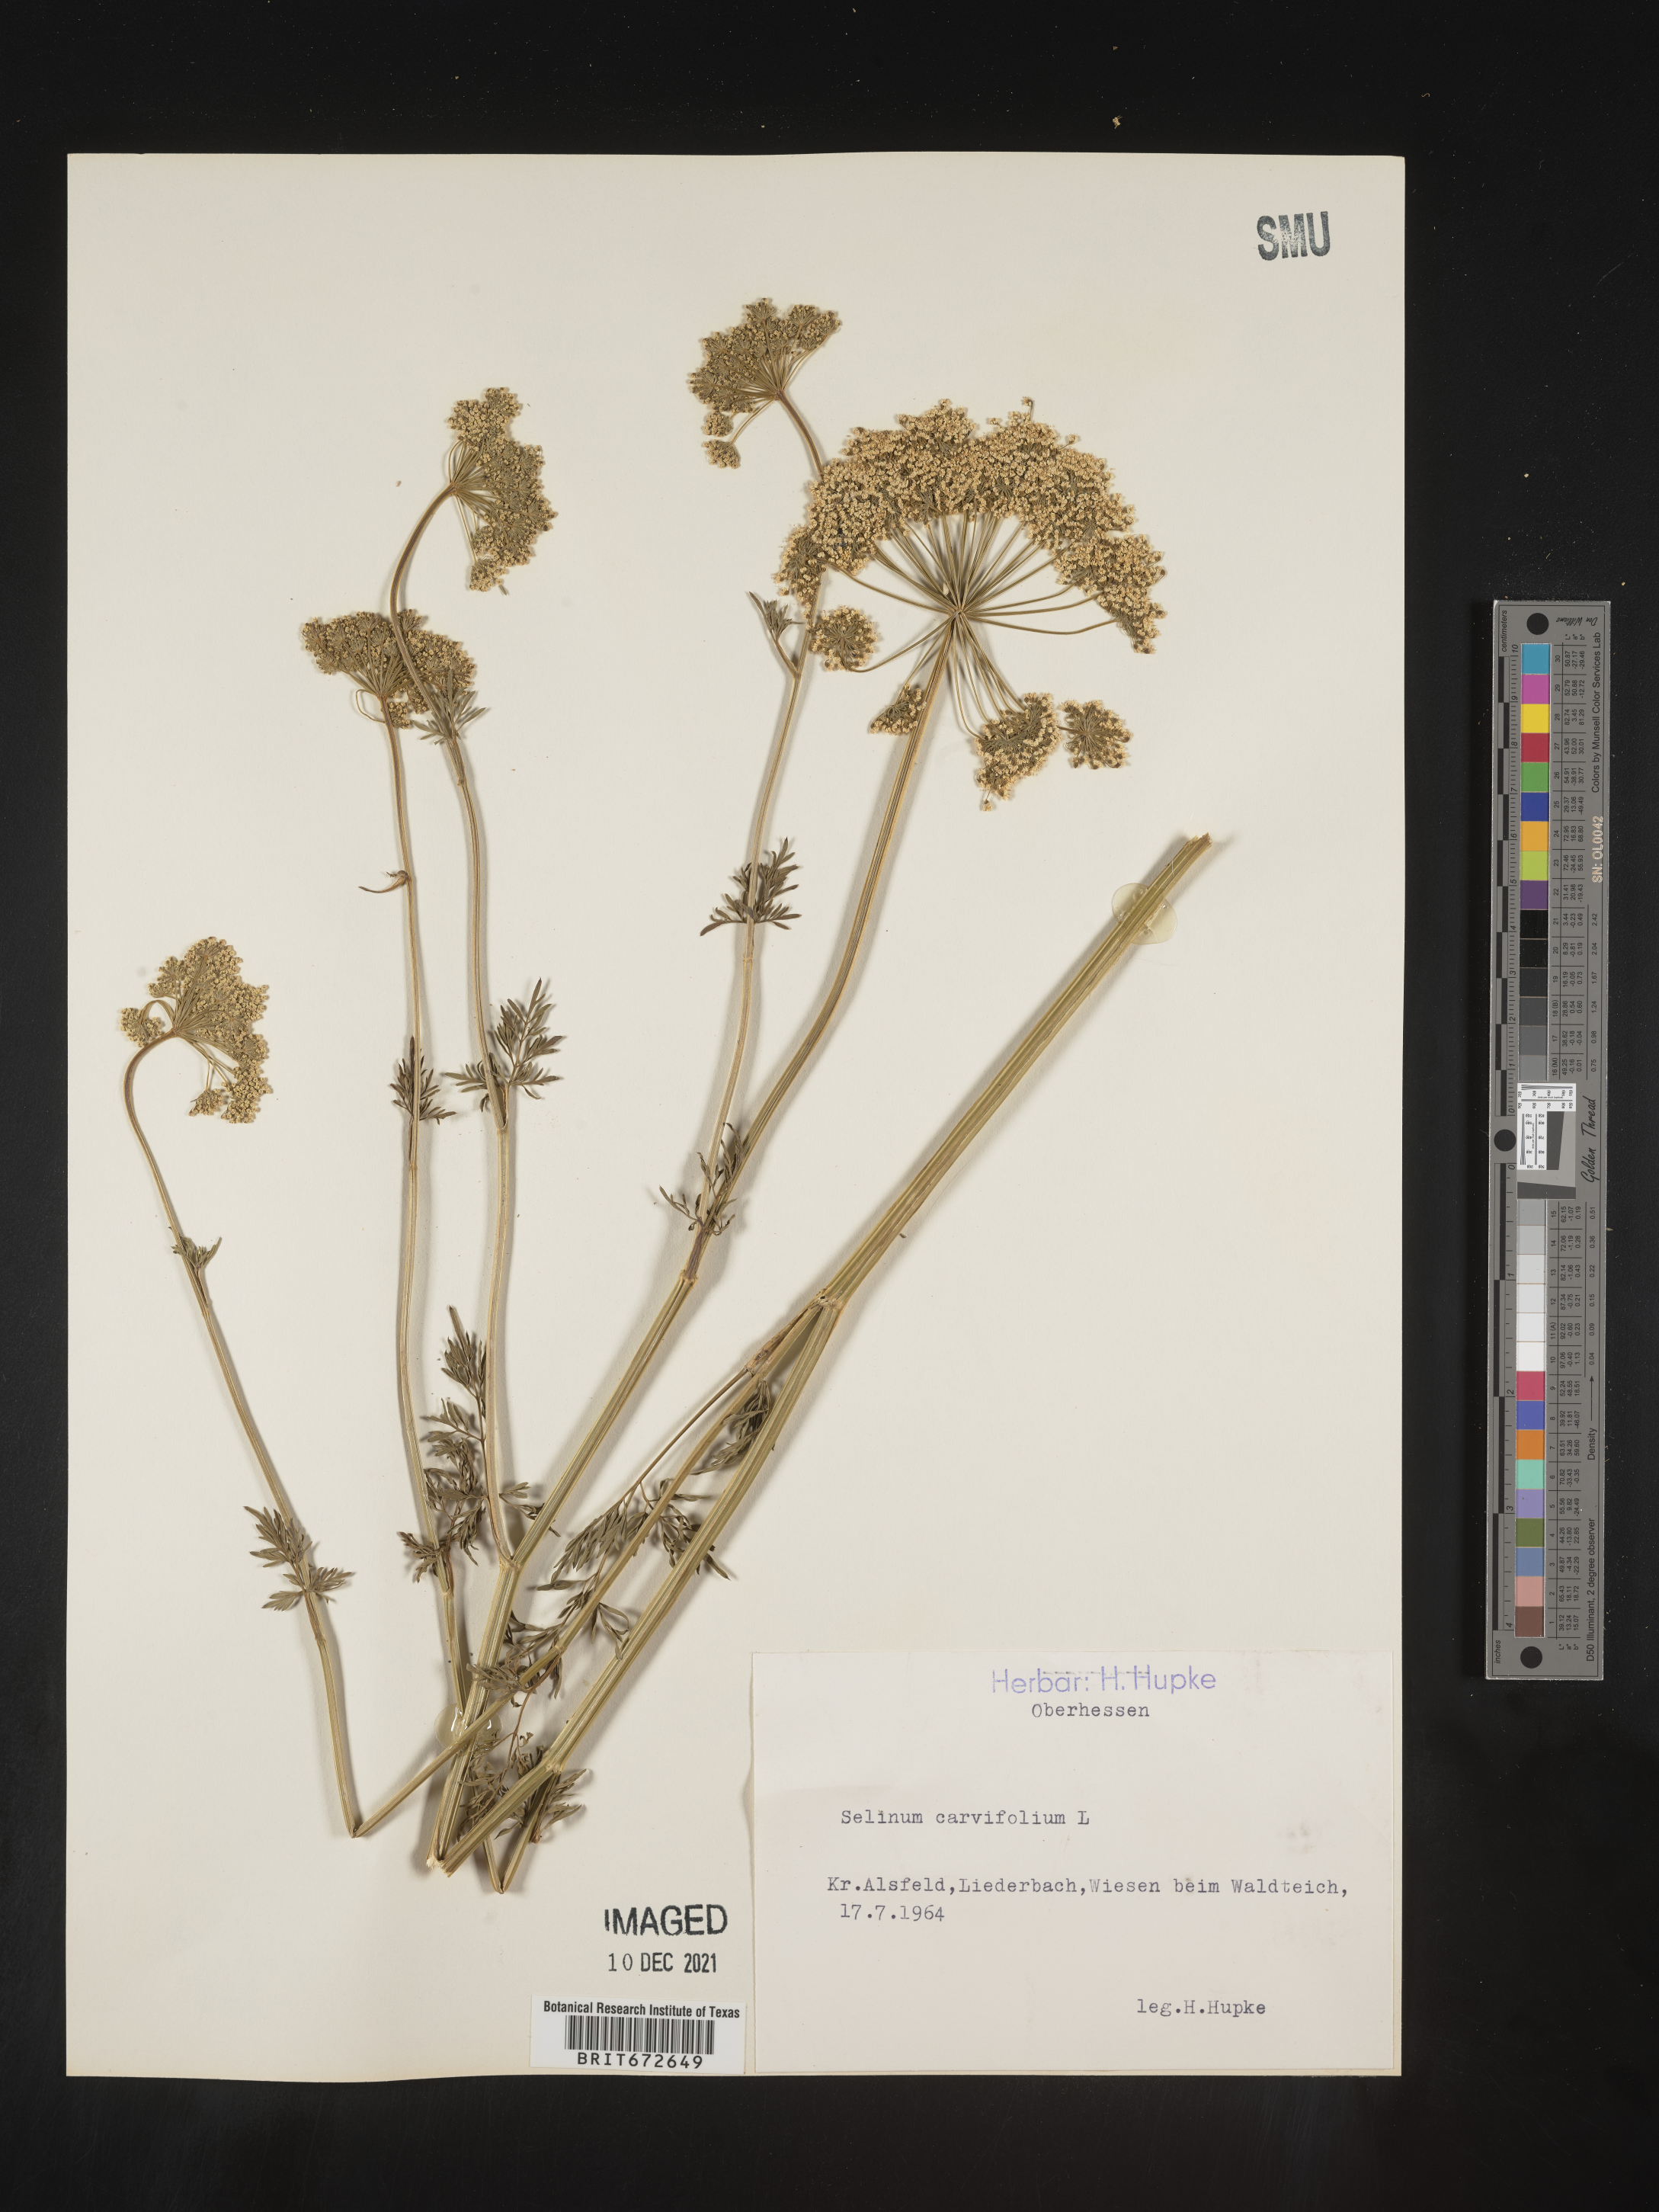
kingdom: Plantae
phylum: Tracheophyta
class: Magnoliopsida
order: Apiales
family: Apiaceae
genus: Selinum
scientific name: Selinum
